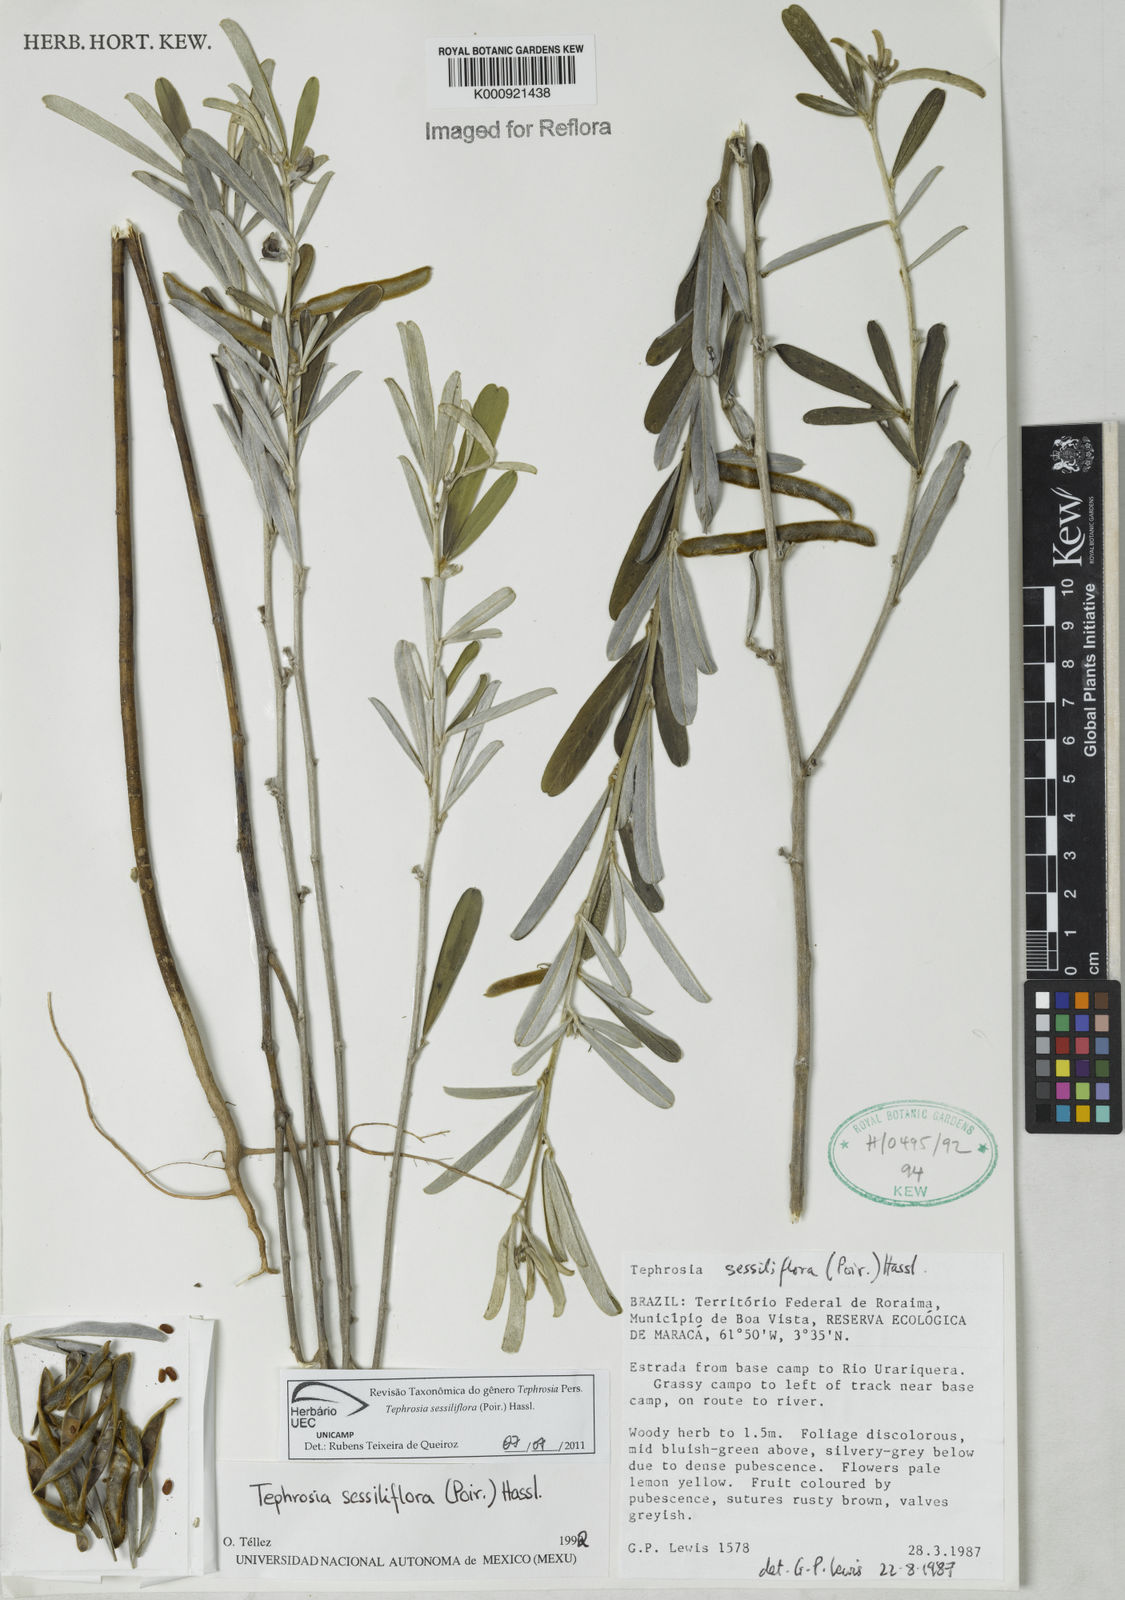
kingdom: Plantae
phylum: Tracheophyta
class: Magnoliopsida
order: Fabales
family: Fabaceae
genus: Tephrosia
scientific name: Tephrosia sessiliflora
